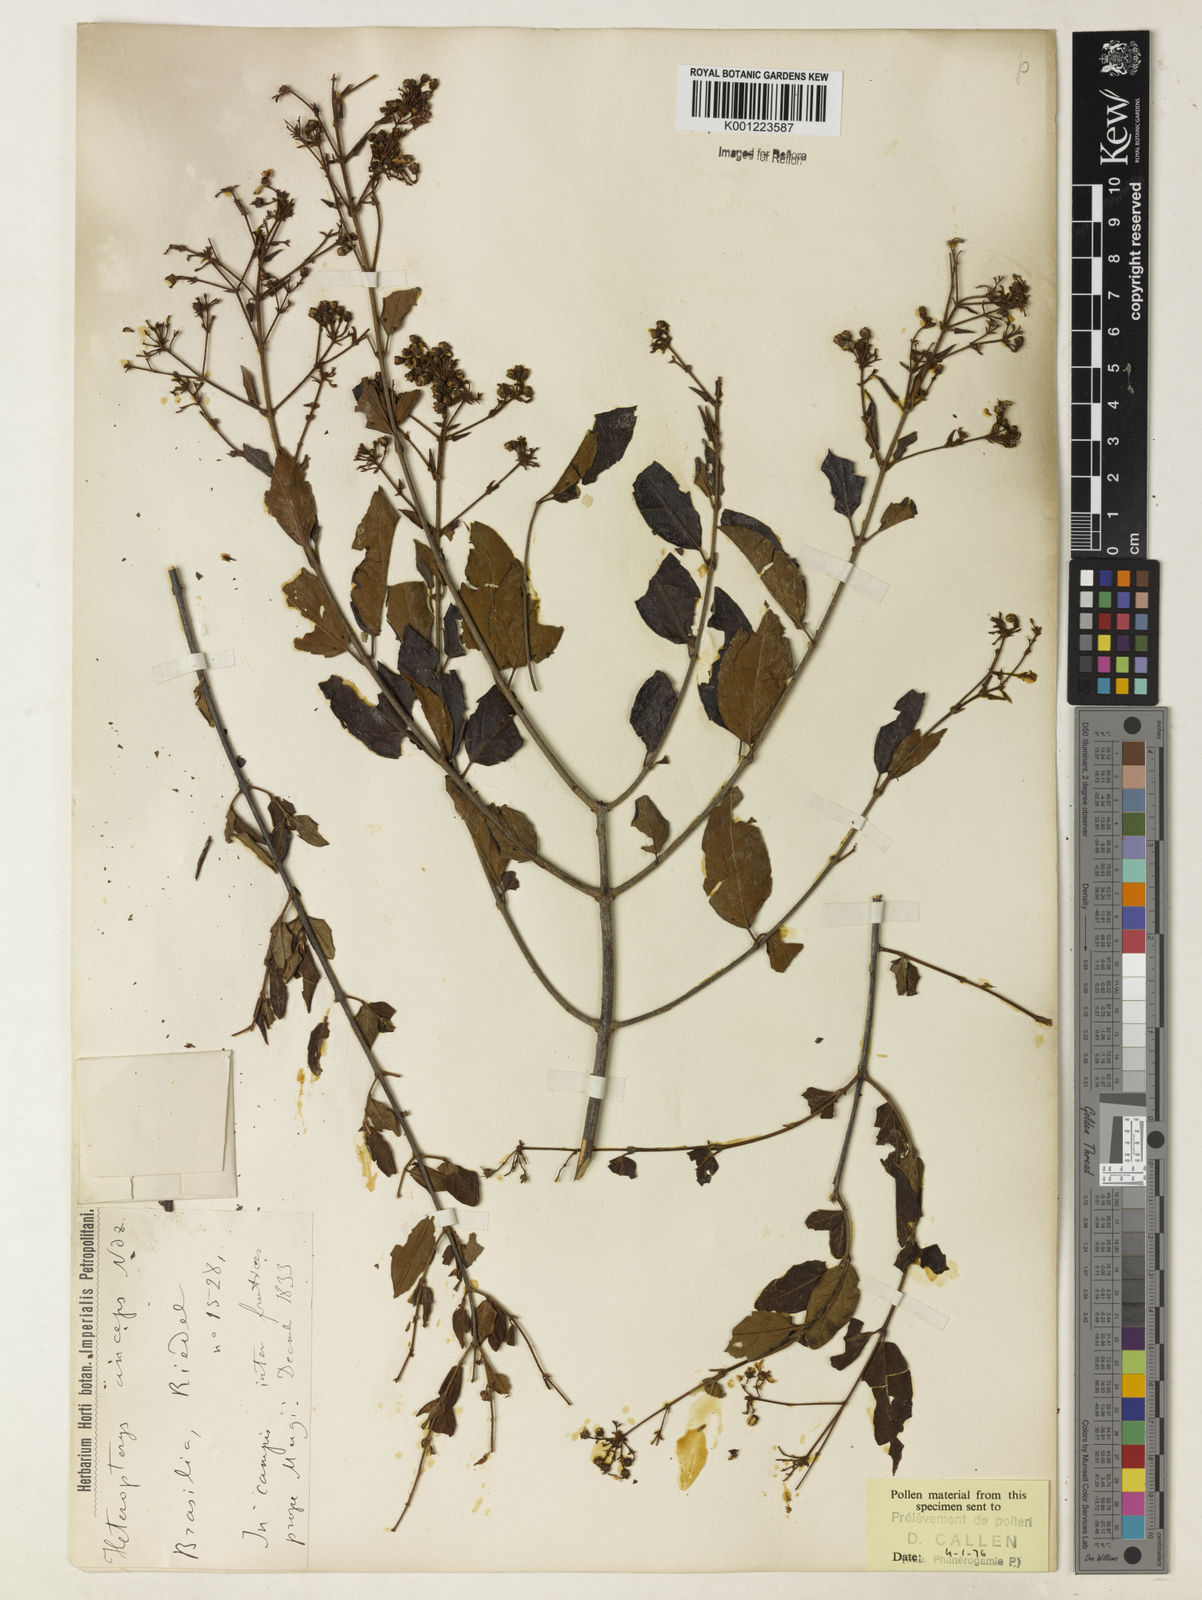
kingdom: Plantae
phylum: Tracheophyta
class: Magnoliopsida
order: Malpighiales
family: Malpighiaceae
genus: Heteropterys
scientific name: Heteropterys
